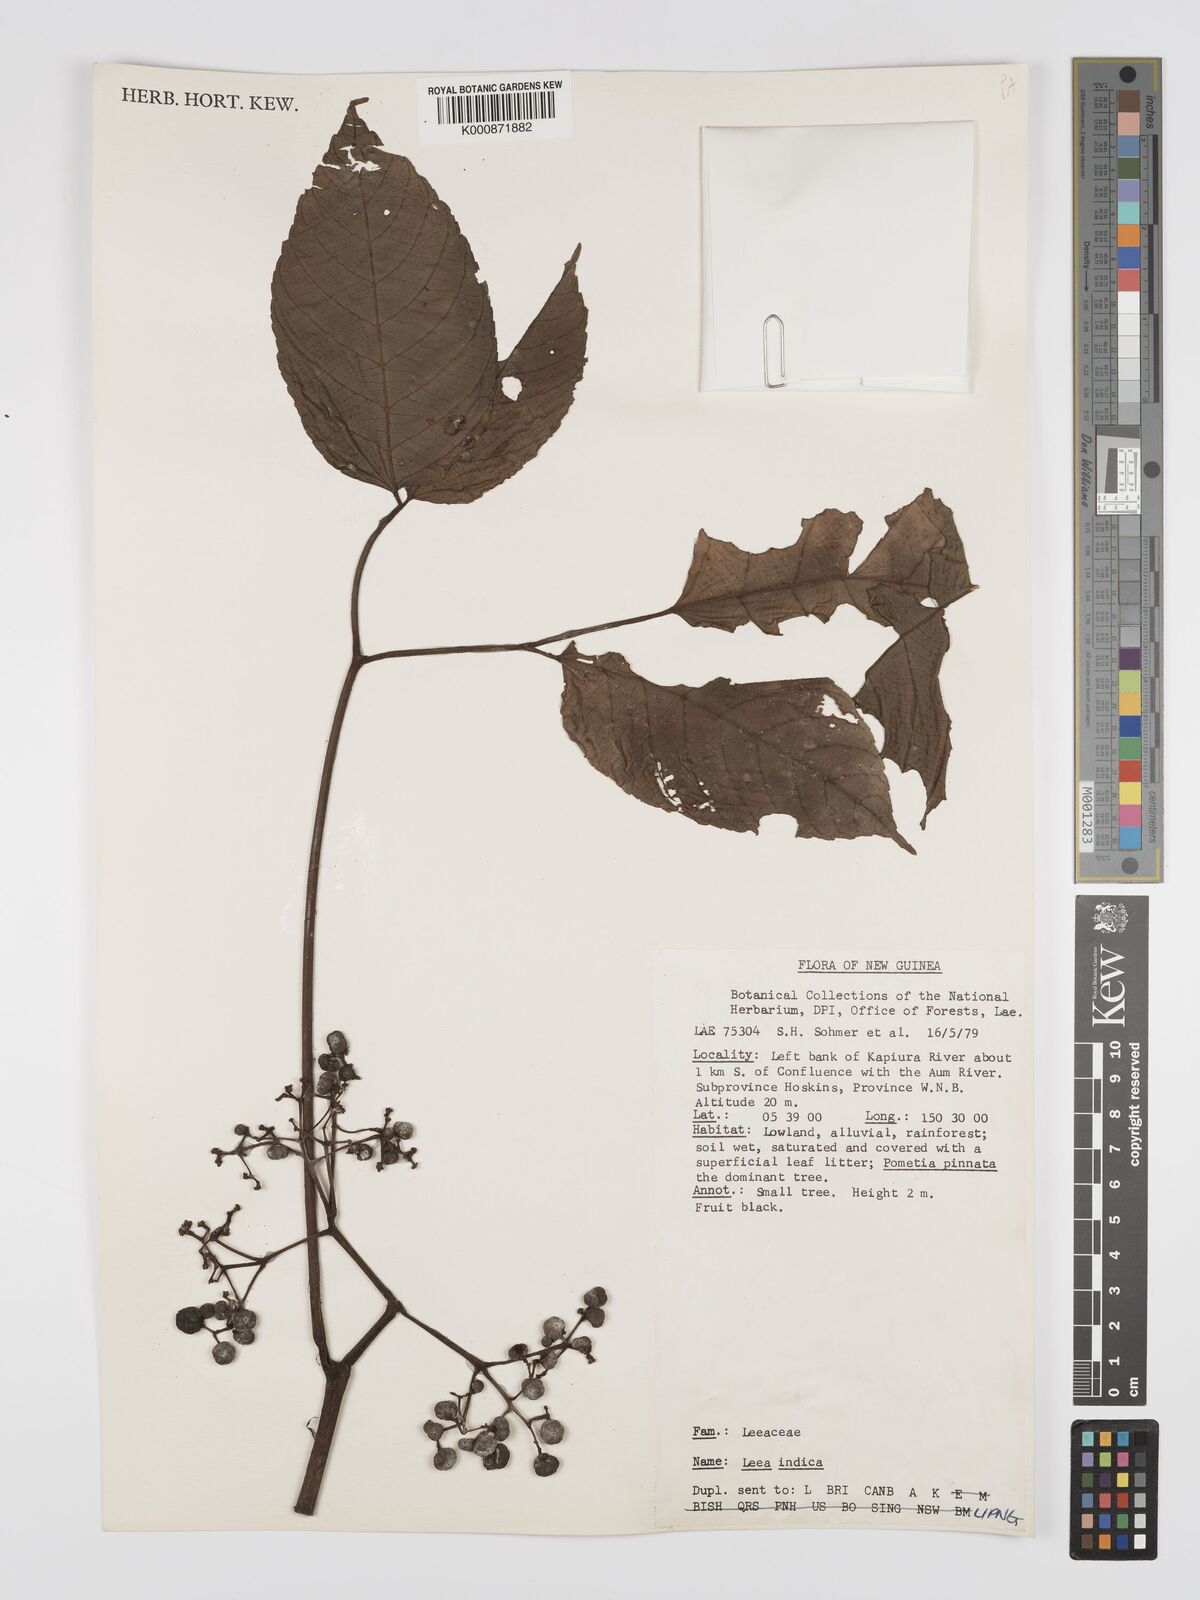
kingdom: Plantae
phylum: Tracheophyta
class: Magnoliopsida
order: Vitales
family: Vitaceae
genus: Leea
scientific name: Leea indica
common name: Bandicoot-berry
